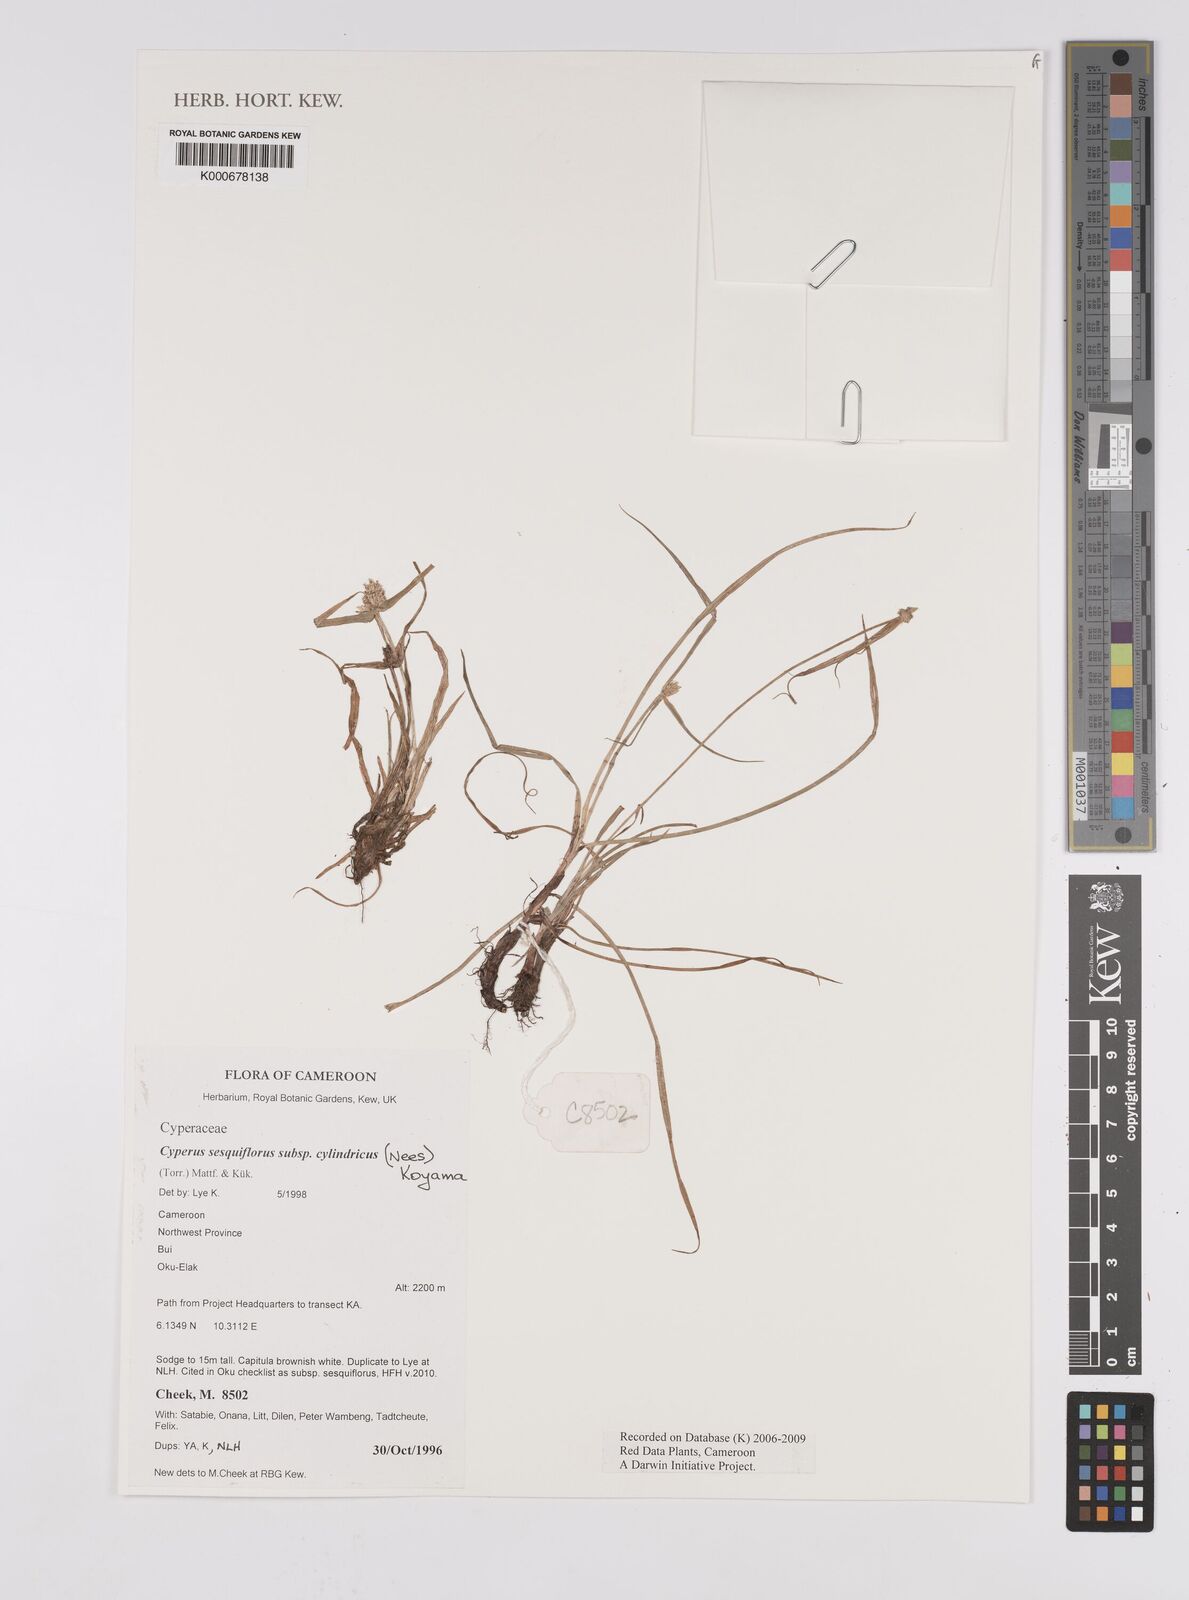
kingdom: Plantae
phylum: Tracheophyta
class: Liliopsida
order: Poales
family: Cyperaceae
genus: Cyperus
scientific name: Cyperus
